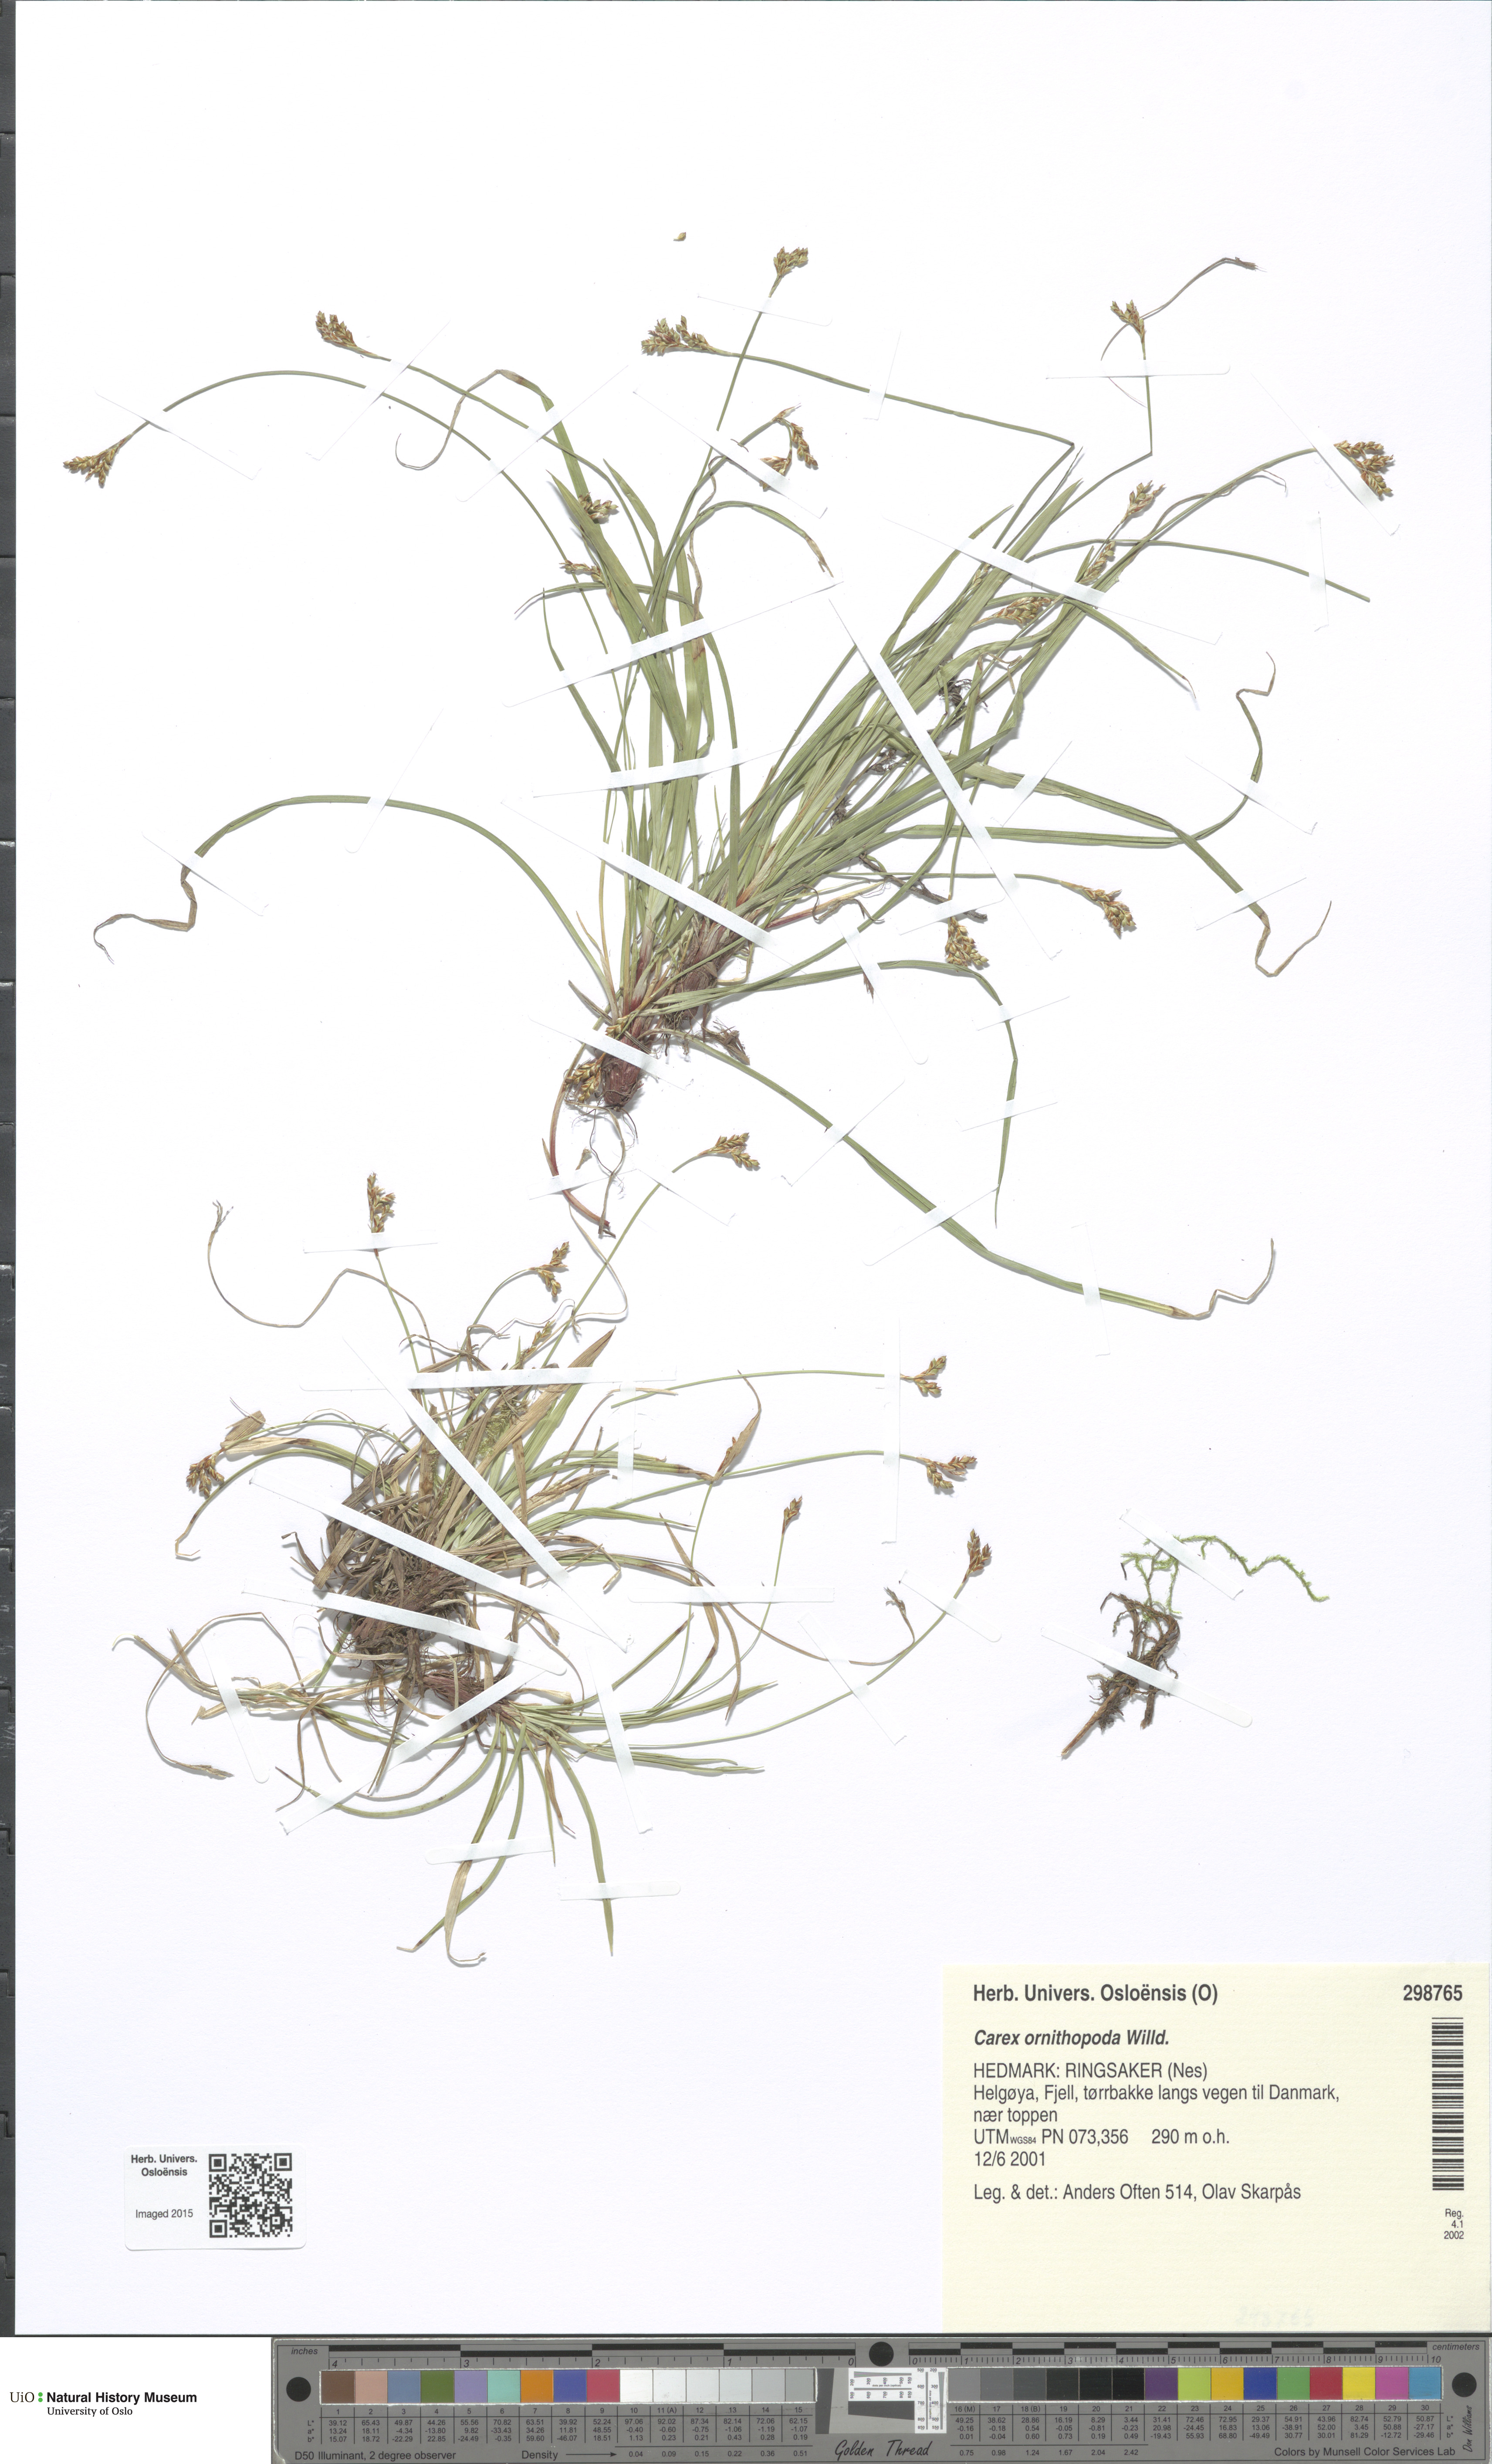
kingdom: Plantae
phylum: Tracheophyta
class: Liliopsida
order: Poales
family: Cyperaceae
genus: Carex
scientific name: Carex ornithopoda
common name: Bird's-foot sedge
